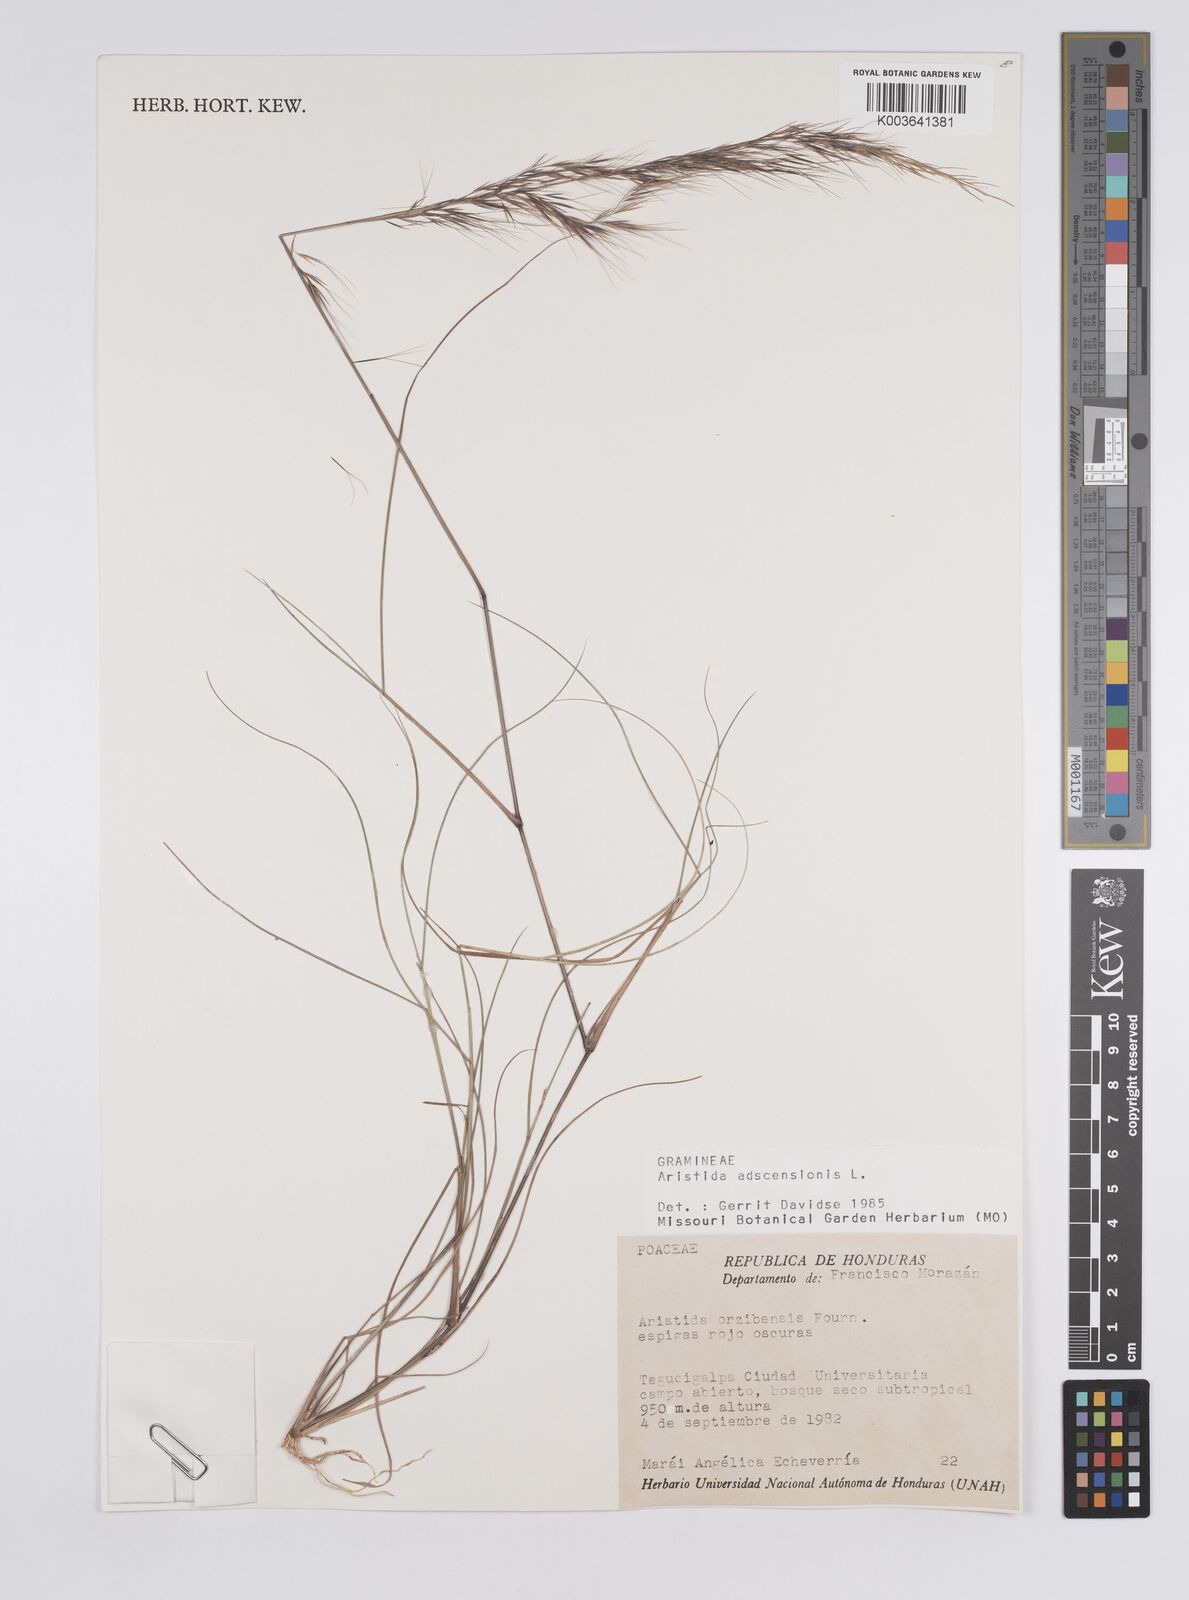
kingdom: Plantae
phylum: Tracheophyta
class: Liliopsida
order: Poales
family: Poaceae
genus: Aristida
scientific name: Aristida gibbosa
